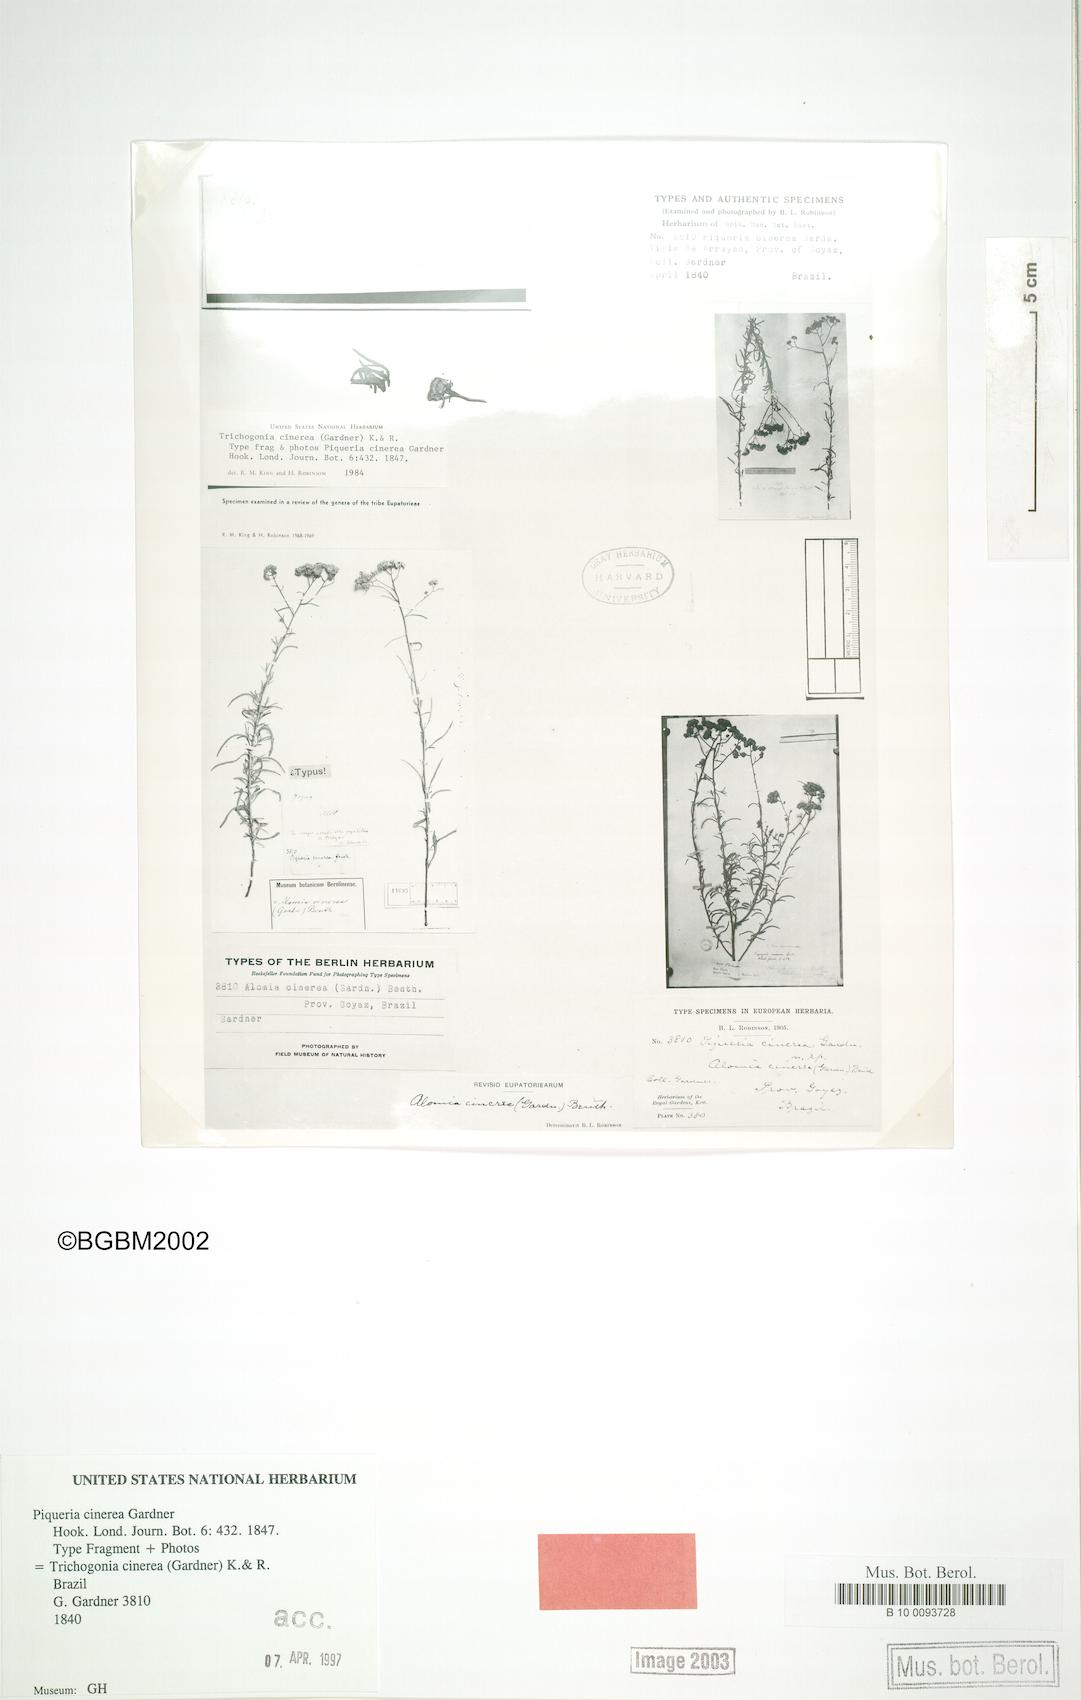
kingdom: Plantae
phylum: Tracheophyta
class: Magnoliopsida
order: Asterales
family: Asteraceae
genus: Trichogonia
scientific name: Trichogonia cinerea
